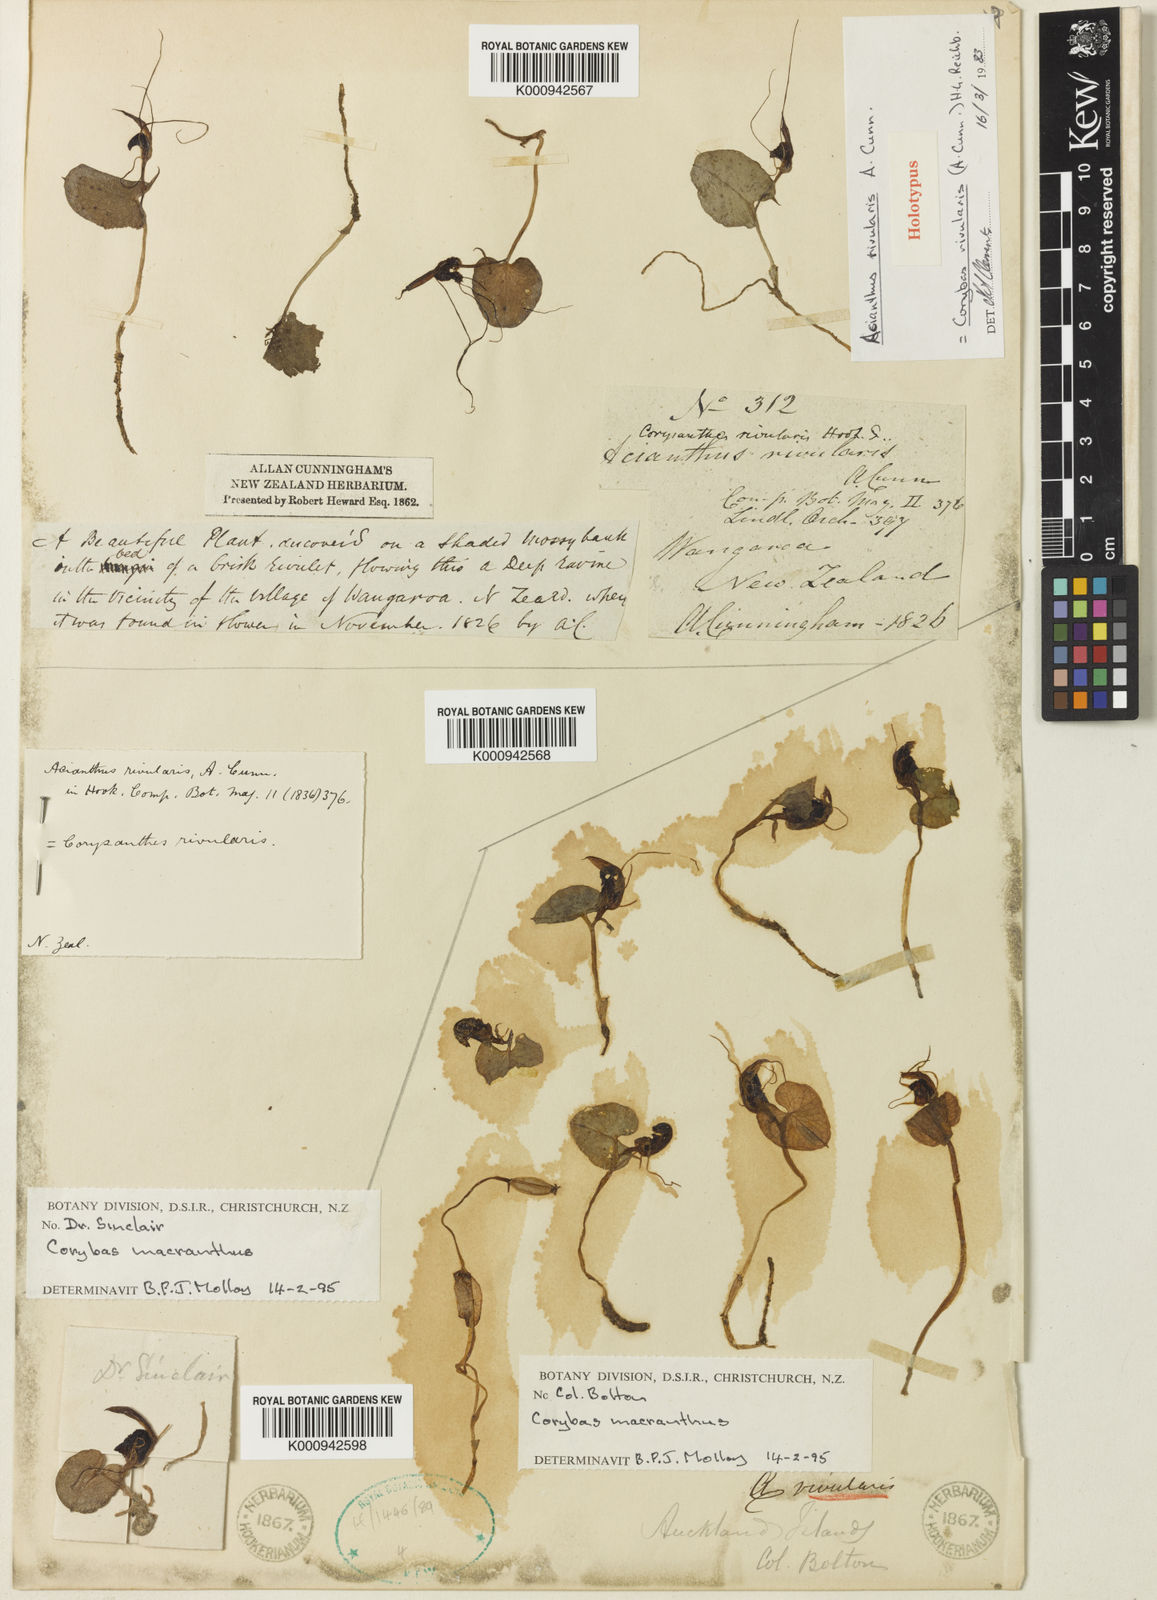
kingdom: Plantae
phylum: Tracheophyta
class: Liliopsida
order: Asparagales
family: Orchidaceae
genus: Corybas
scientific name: Corybas rivularis
